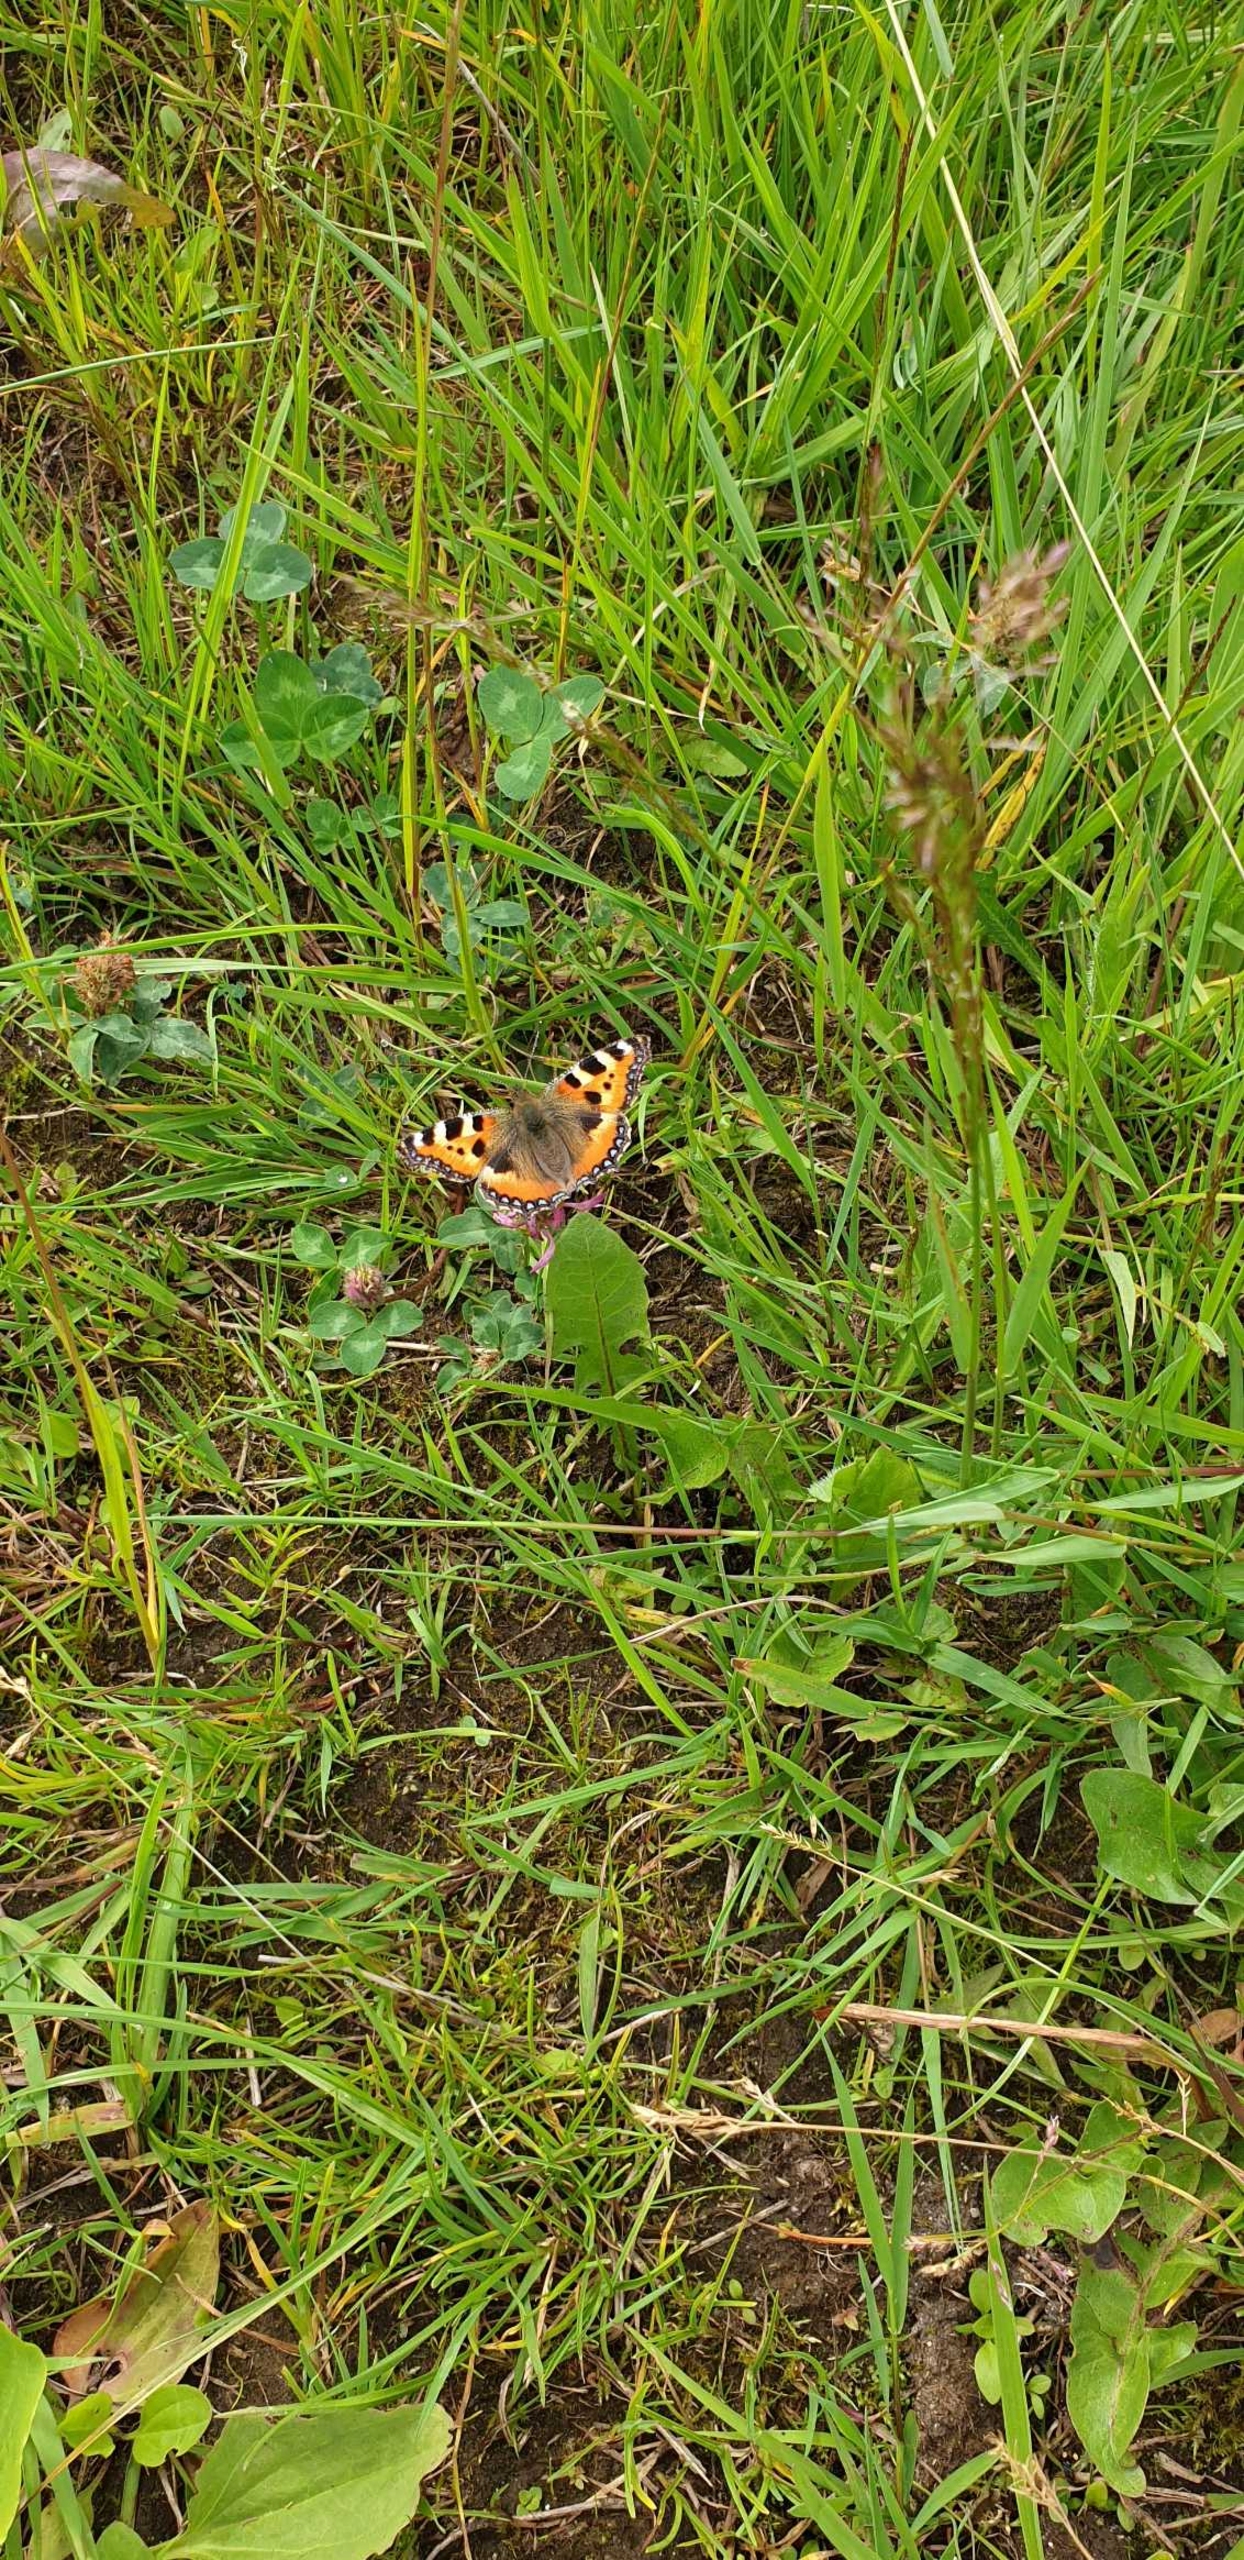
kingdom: Animalia
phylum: Arthropoda
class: Insecta
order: Lepidoptera
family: Nymphalidae
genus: Aglais
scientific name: Aglais urticae
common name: Nældens takvinge
